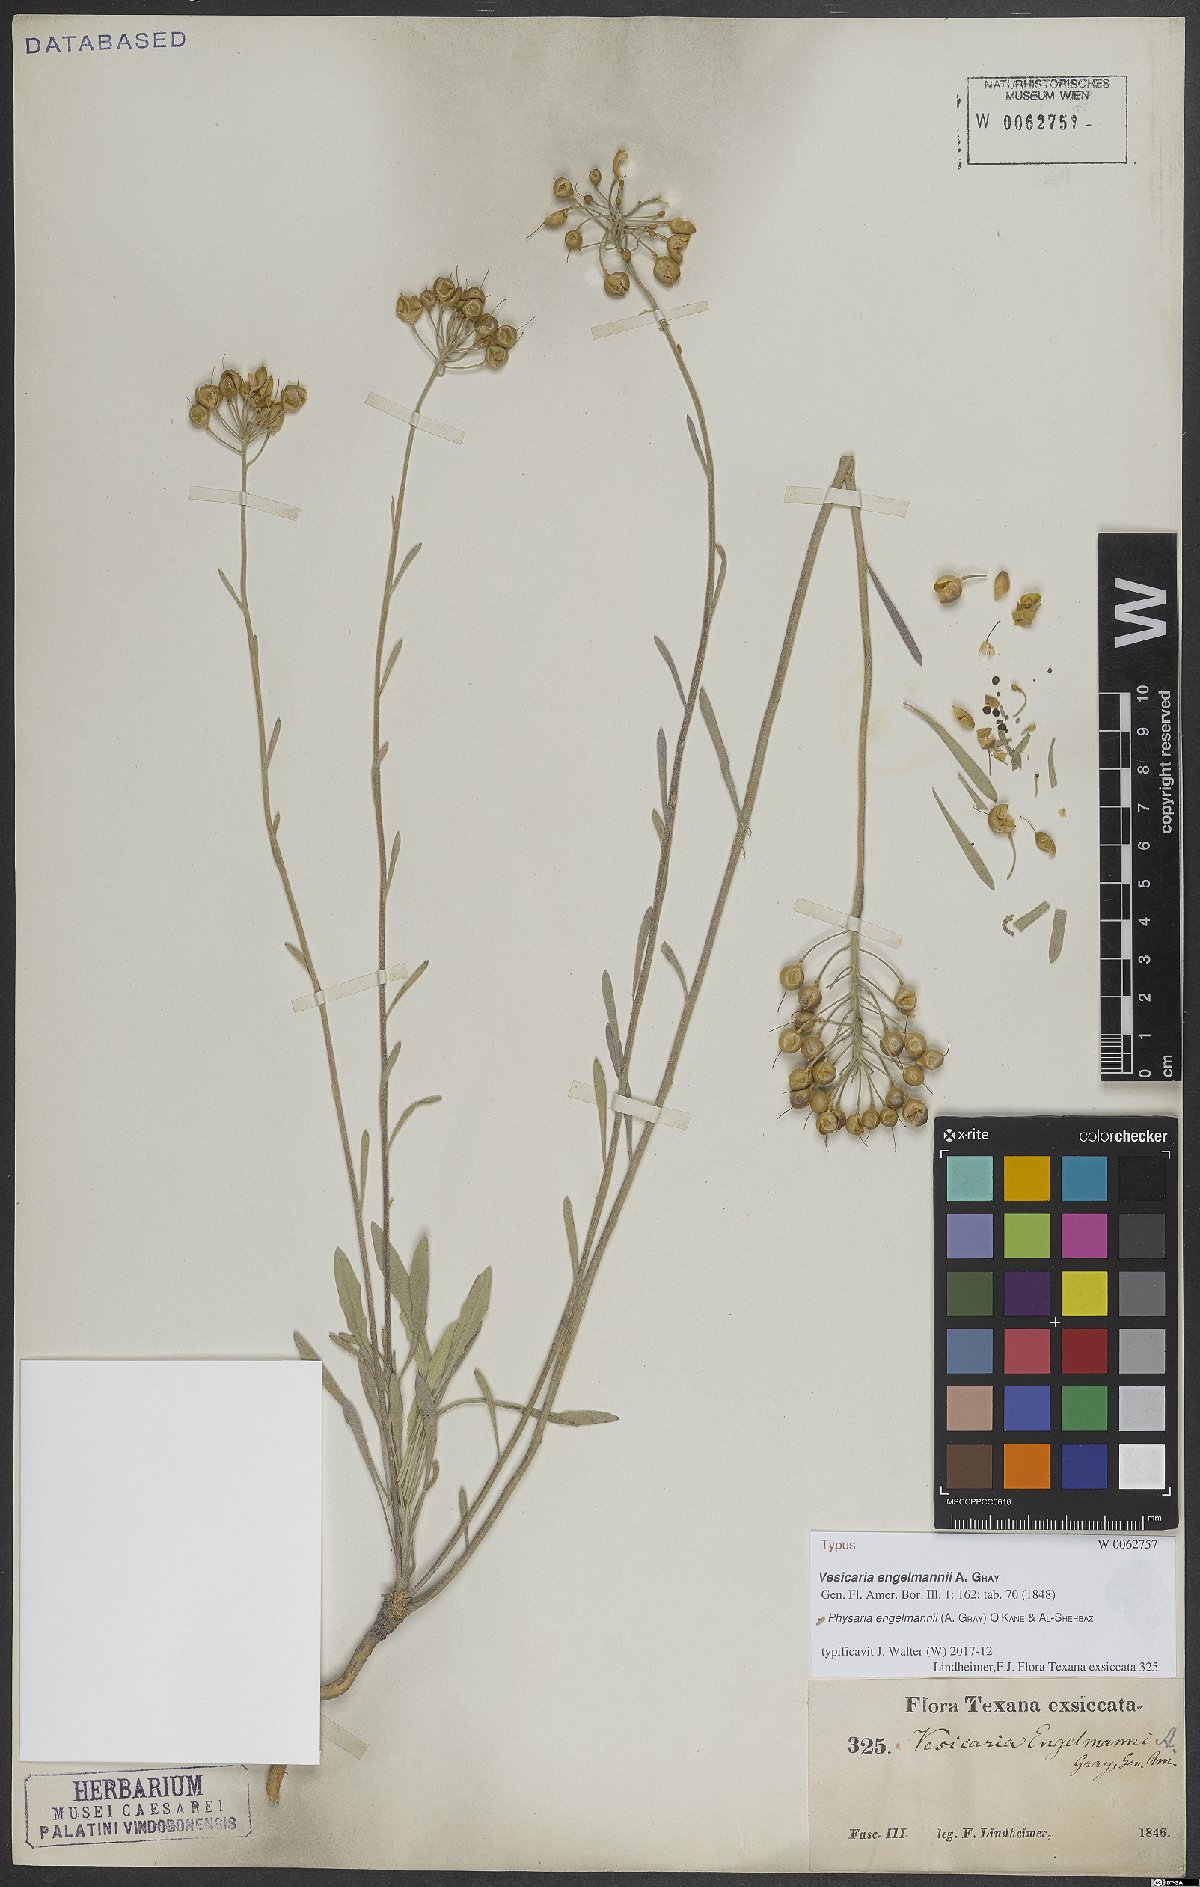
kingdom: Plantae
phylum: Tracheophyta
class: Magnoliopsida
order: Brassicales
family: Brassicaceae
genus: Physaria
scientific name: Physaria engelmannii
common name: Engelmann's bladderpod
